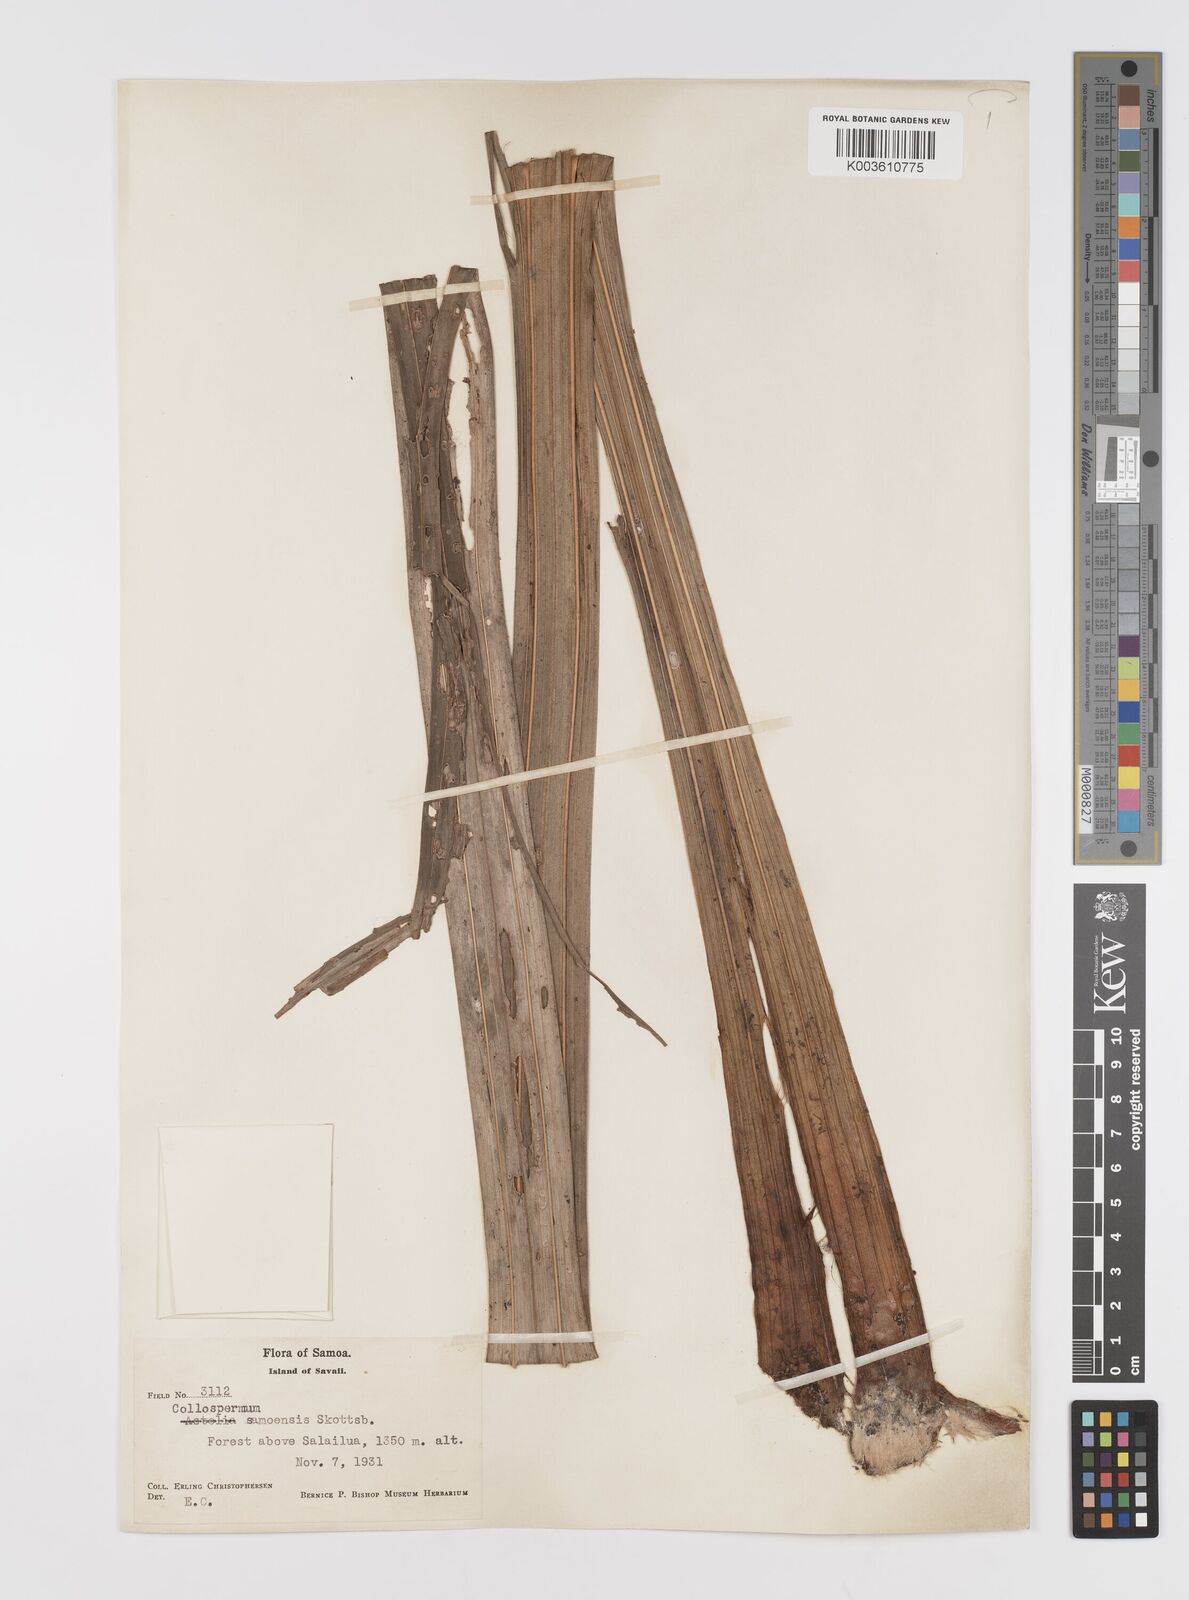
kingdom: Plantae
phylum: Tracheophyta
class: Liliopsida
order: Asparagales
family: Asteliaceae
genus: Astelia
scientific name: Astelia samoense
